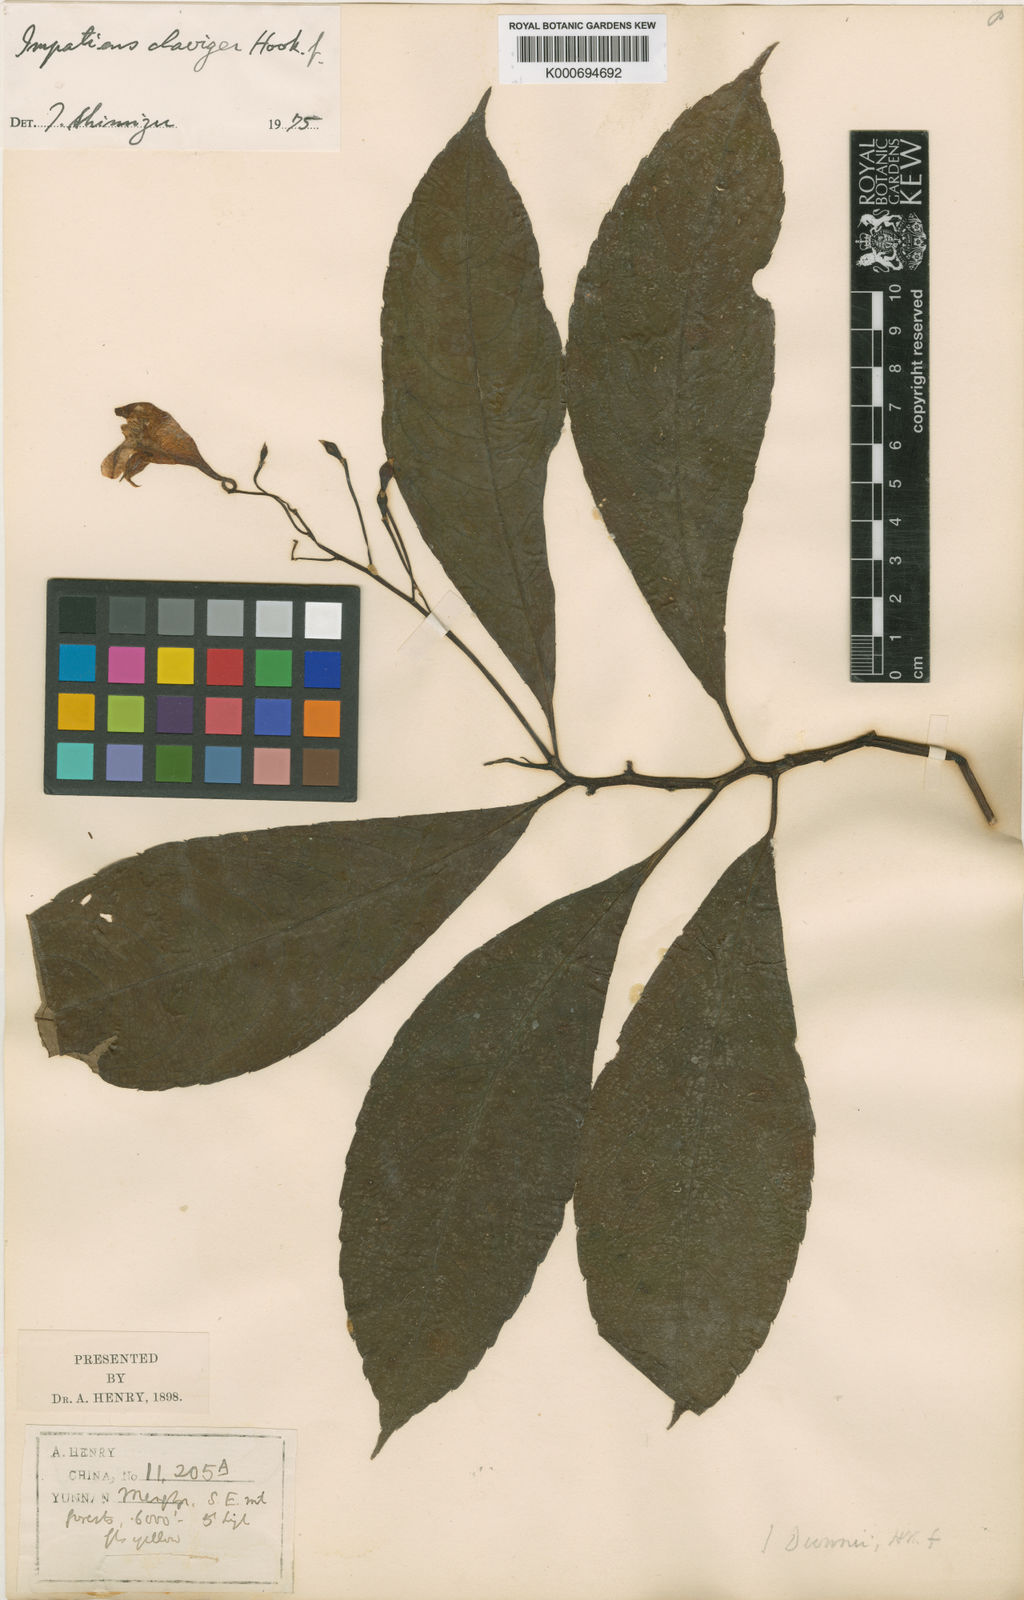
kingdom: Plantae
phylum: Tracheophyta
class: Magnoliopsida
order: Ericales
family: Balsaminaceae
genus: Impatiens
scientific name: Impatiens
